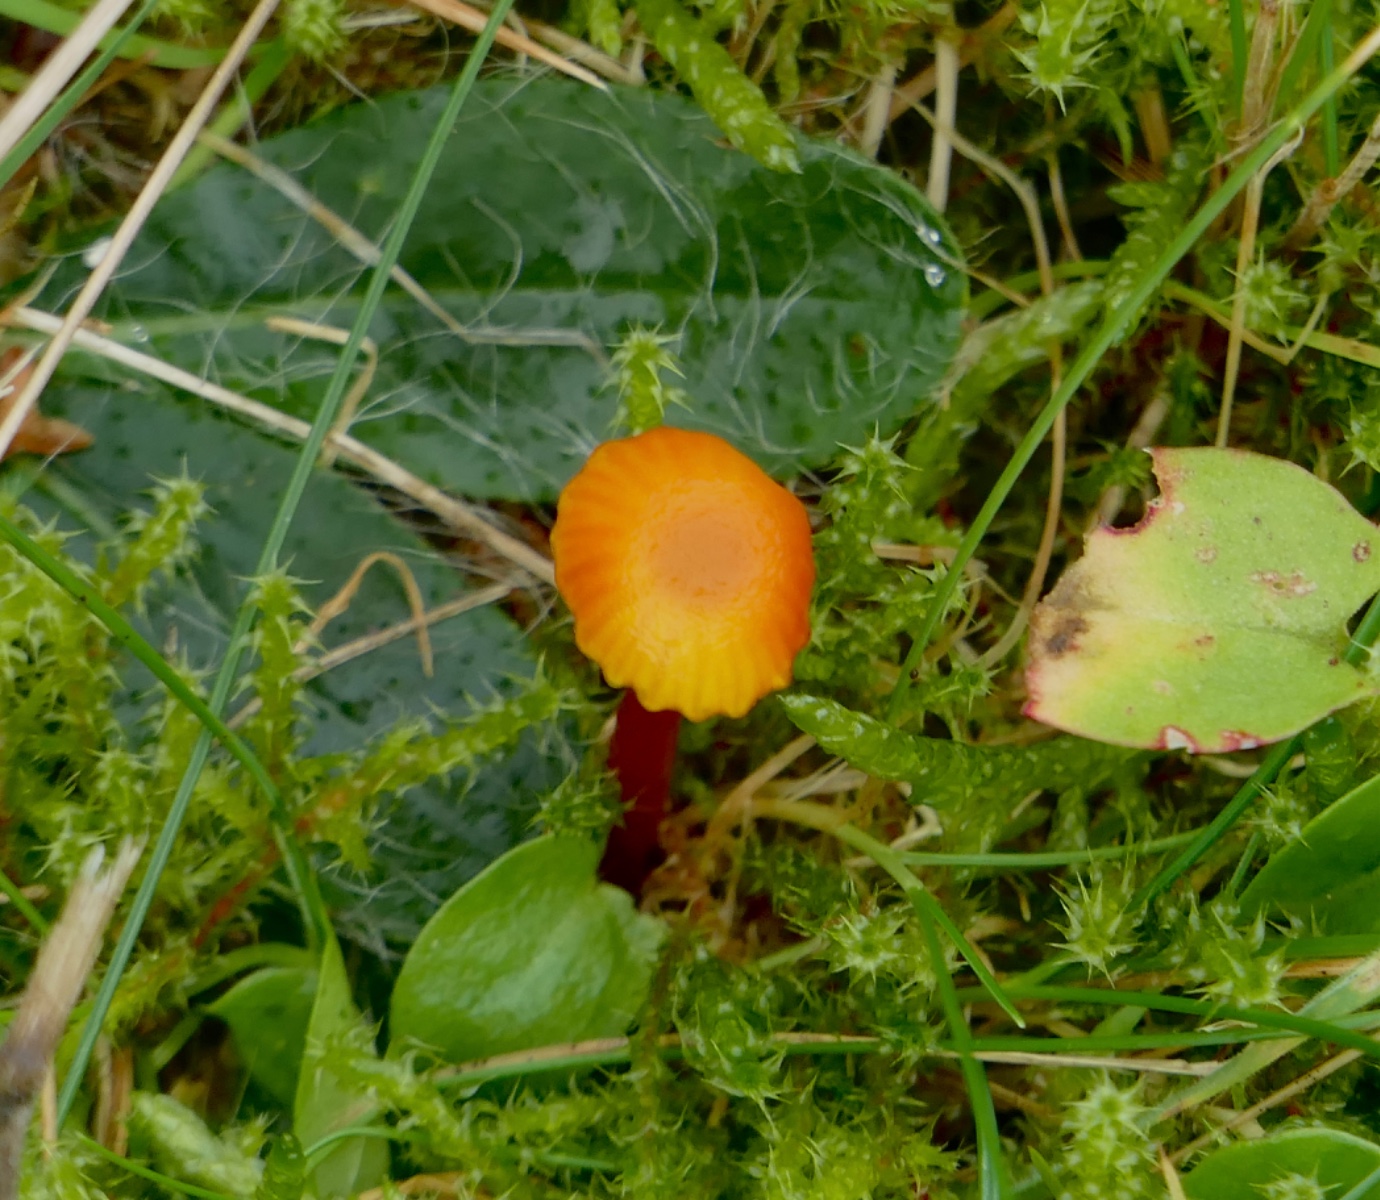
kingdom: Fungi
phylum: Basidiomycota
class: Agaricomycetes
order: Agaricales
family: Hygrophoraceae
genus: Hygrocybe
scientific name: Hygrocybe insipida
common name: liden vokshat
